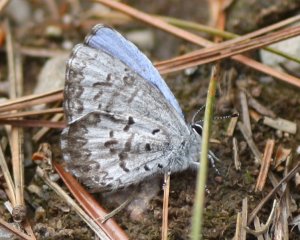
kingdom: Animalia
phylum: Arthropoda
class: Insecta
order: Lepidoptera
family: Lycaenidae
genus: Celastrina
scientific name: Celastrina lucia
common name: Northern Spring Azure
